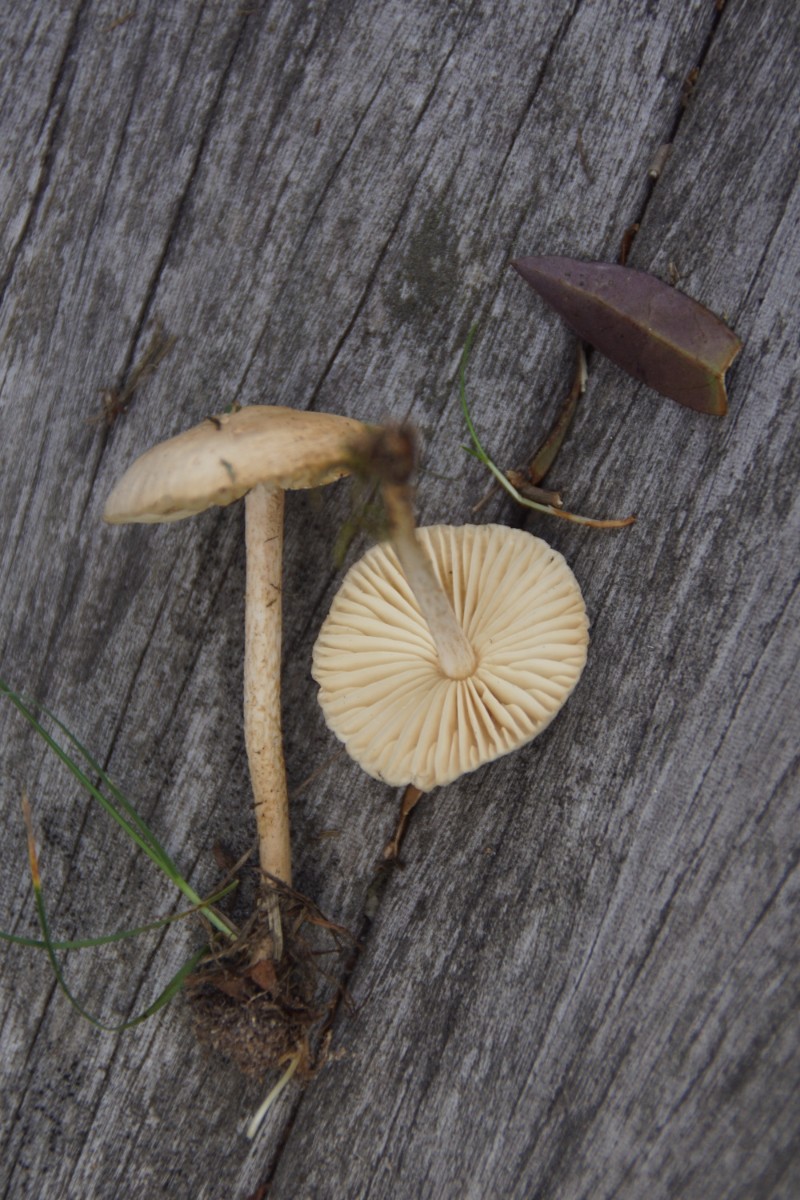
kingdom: Fungi
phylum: Basidiomycota
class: Agaricomycetes
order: Agaricales
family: Marasmiaceae
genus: Marasmius
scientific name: Marasmius oreades
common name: elledans-bruskhat
